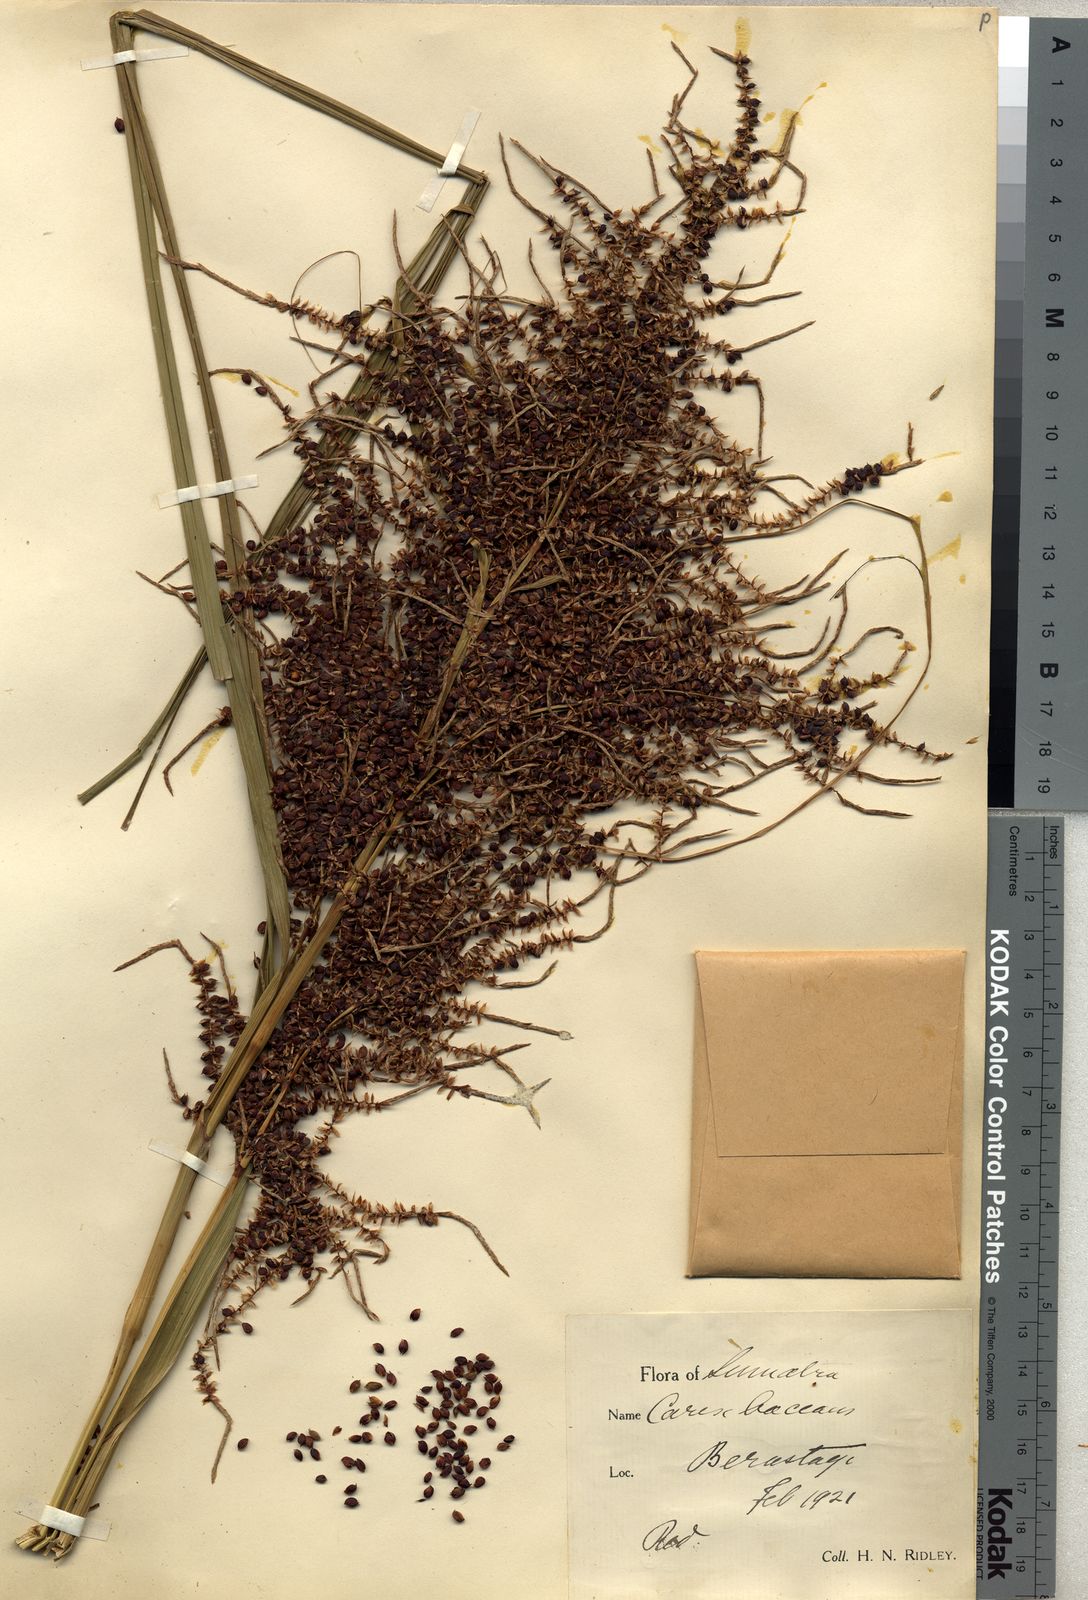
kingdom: Plantae
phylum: Tracheophyta
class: Liliopsida
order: Poales
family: Cyperaceae
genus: Carex
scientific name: Carex baccans
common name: Crimson seeded sedge
